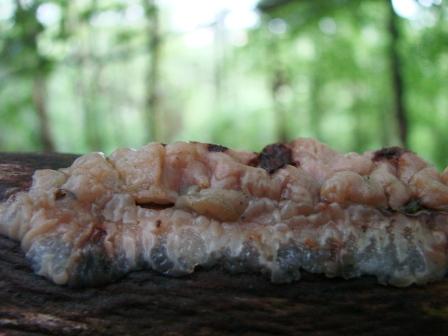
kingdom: Fungi
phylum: Basidiomycota
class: Agaricomycetes
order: Auriculariales
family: Auriculariaceae
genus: Exidia
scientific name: Exidia thuretiana
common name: hvidlig bævretop
